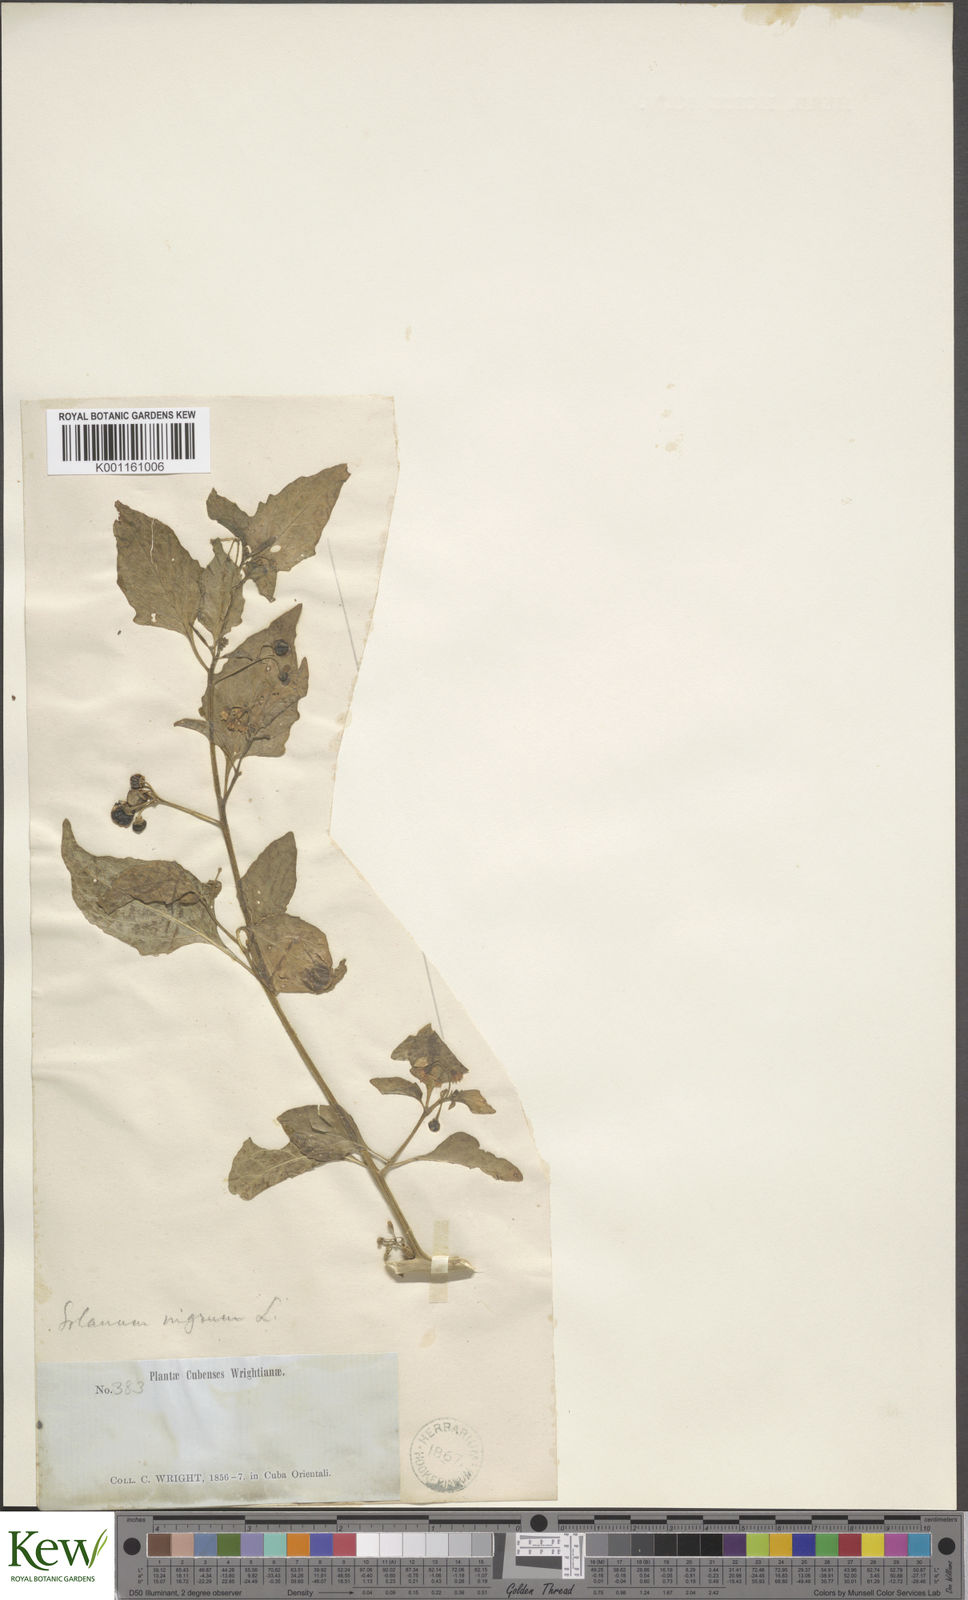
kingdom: Plantae
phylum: Tracheophyta
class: Magnoliopsida
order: Solanales
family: Solanaceae
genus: Solanum
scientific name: Solanum americanum
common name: American black nightshade
